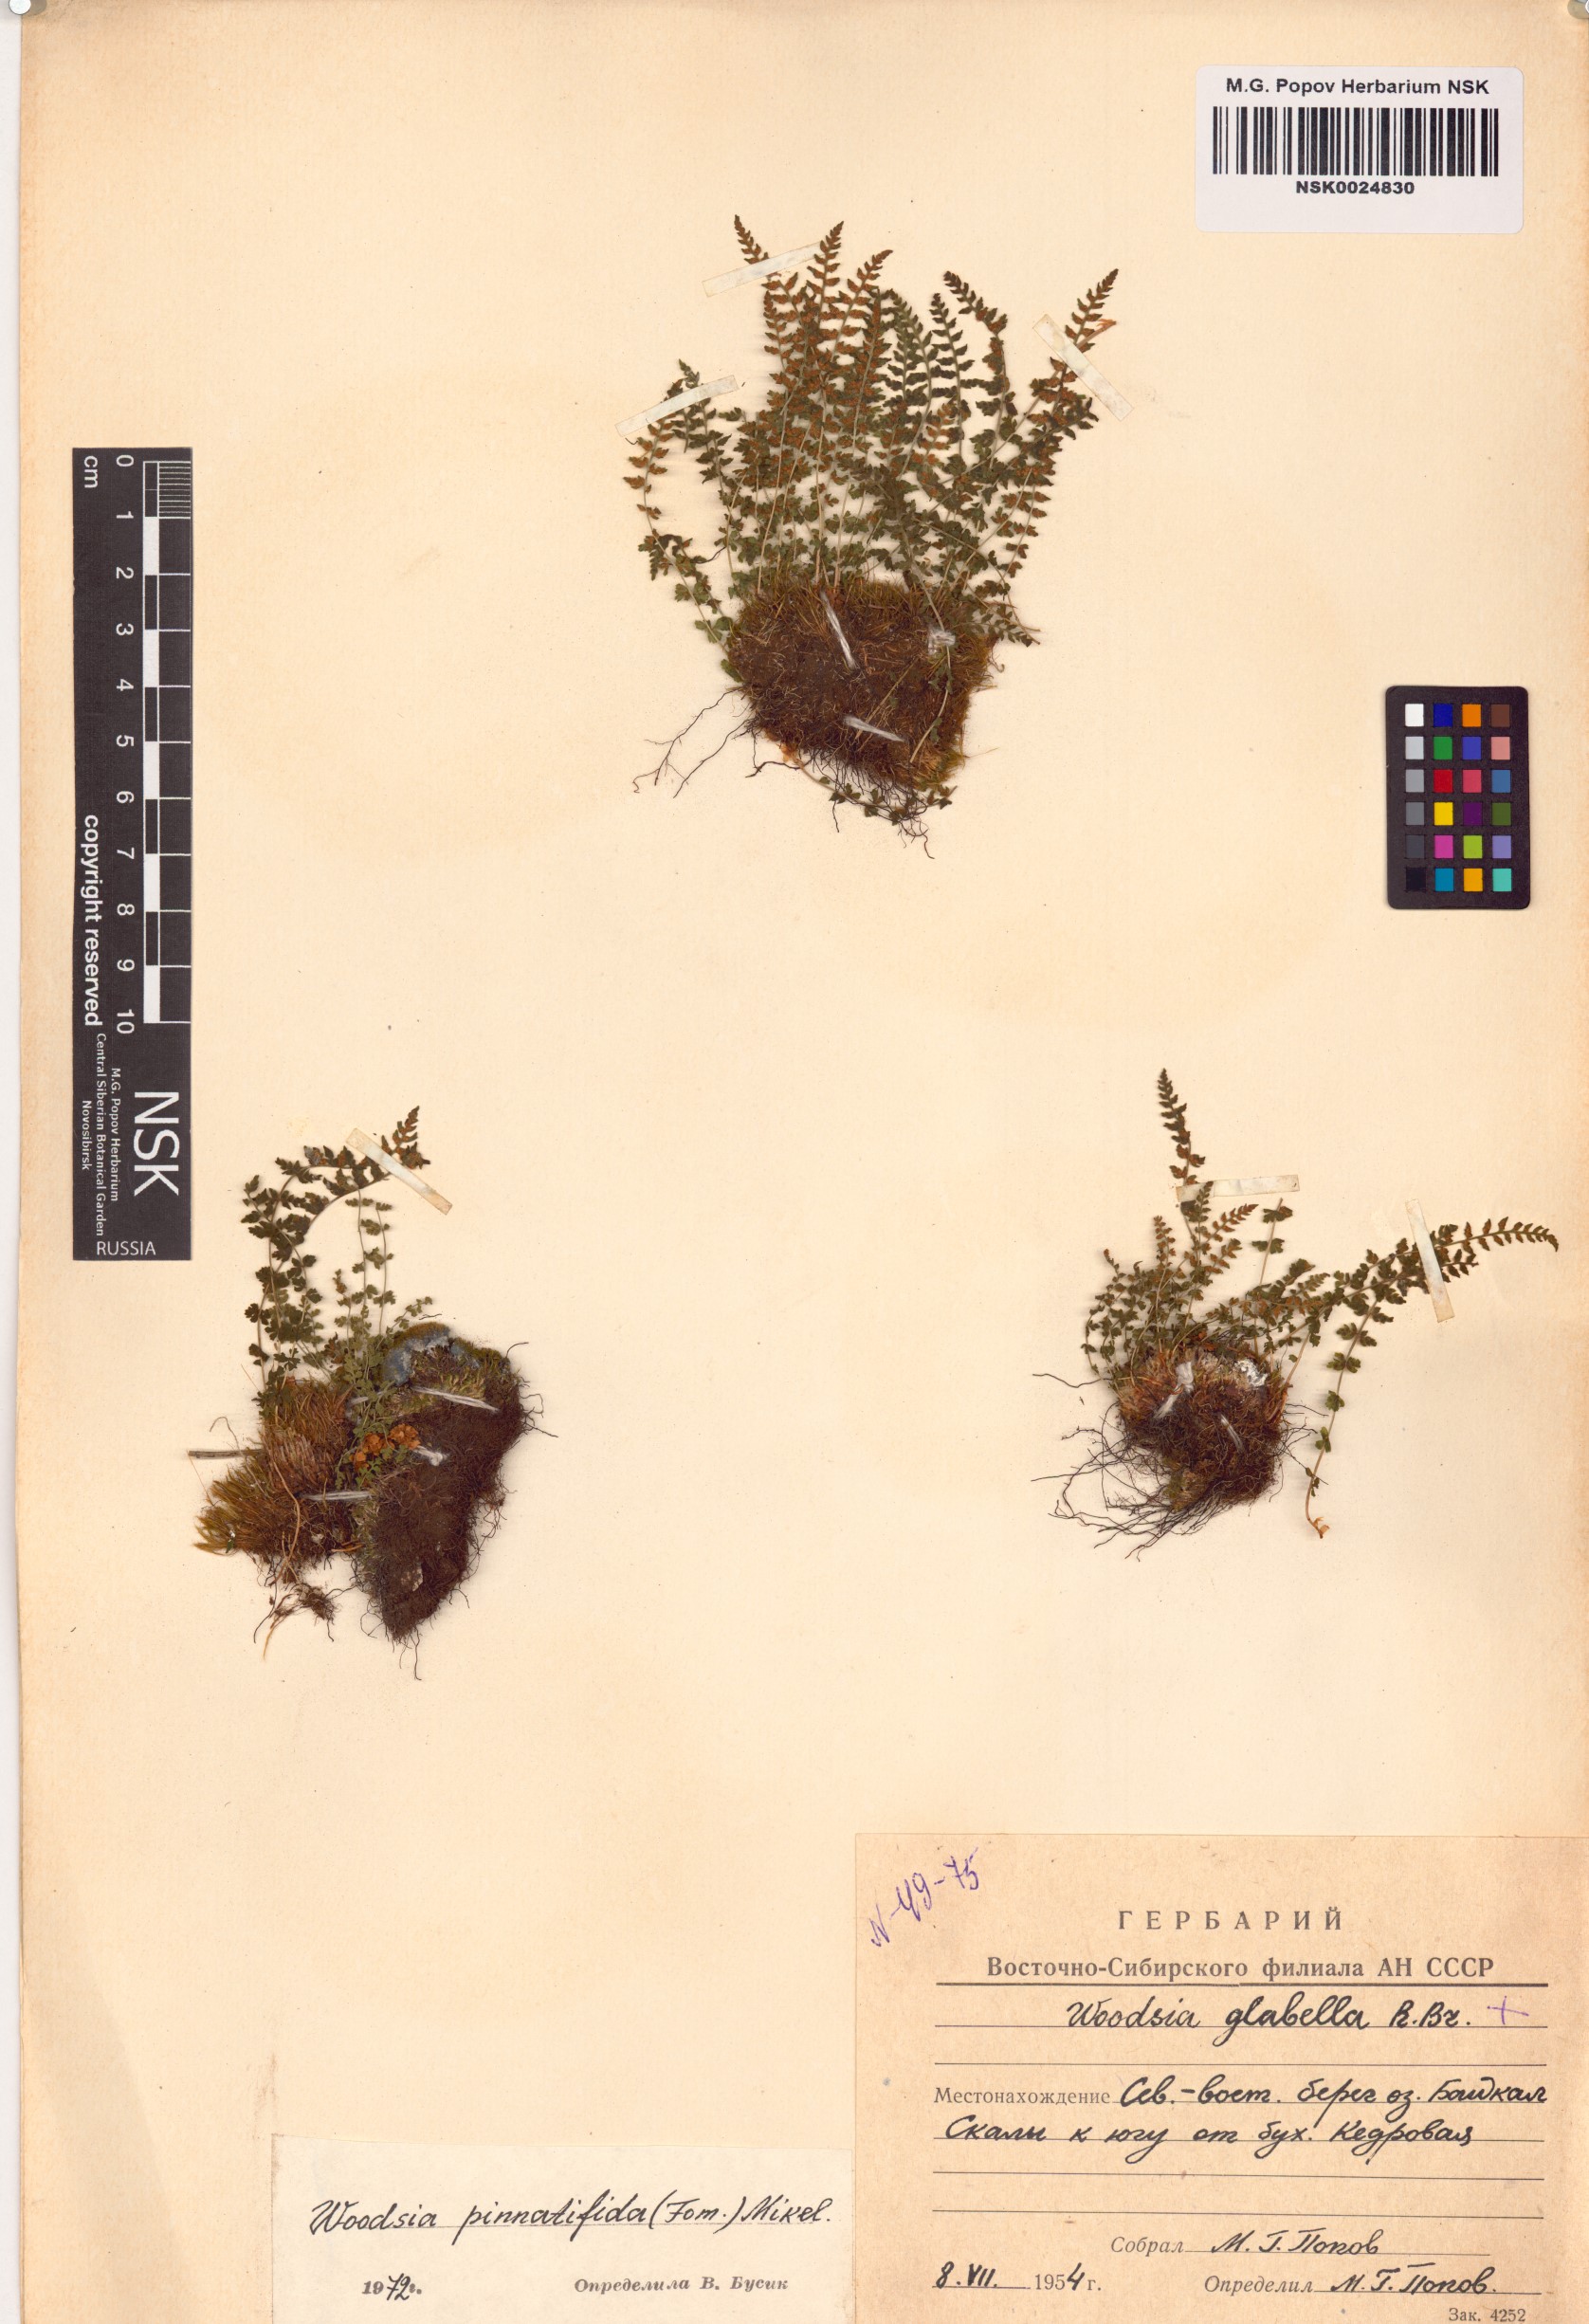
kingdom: Plantae
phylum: Tracheophyta
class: Polypodiopsida
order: Polypodiales
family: Woodsiaceae
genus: Woodsia
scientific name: Woodsia pulchella
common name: Graceful woodsia
